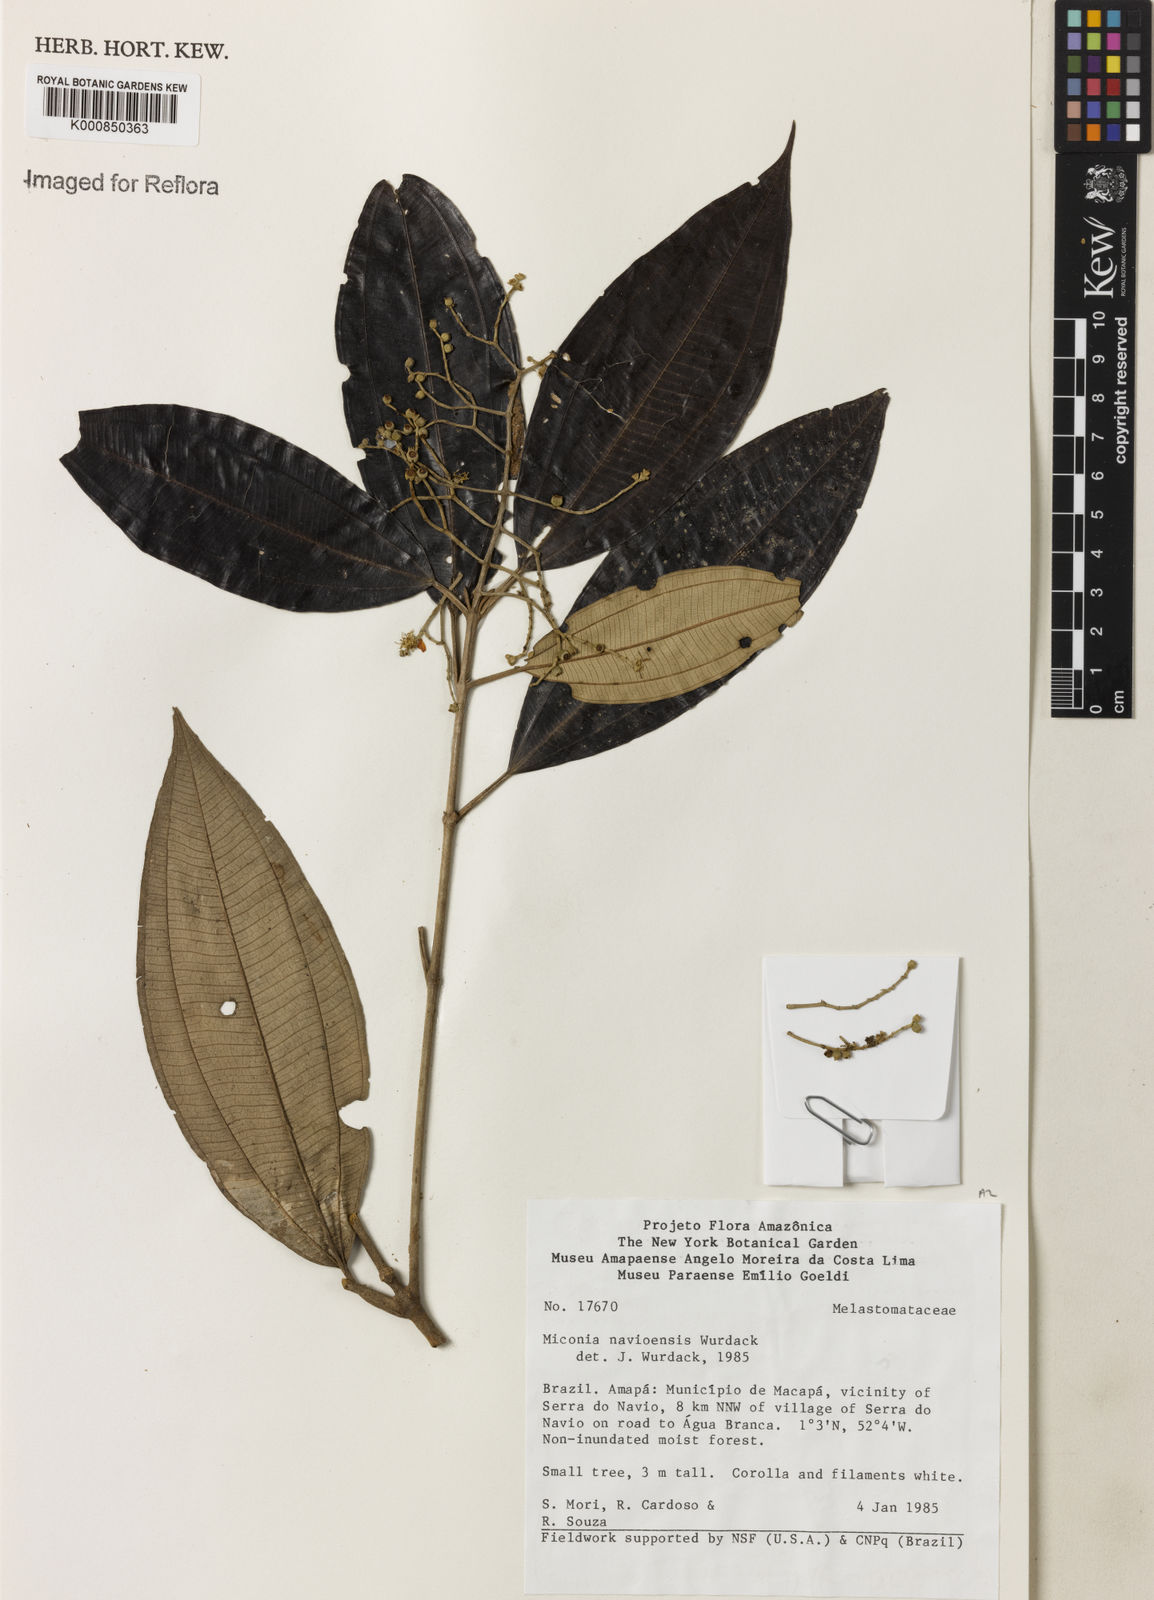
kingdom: Plantae
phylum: Tracheophyta
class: Magnoliopsida
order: Myrtales
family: Melastomataceae
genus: Miconia
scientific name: Miconia navioensis
